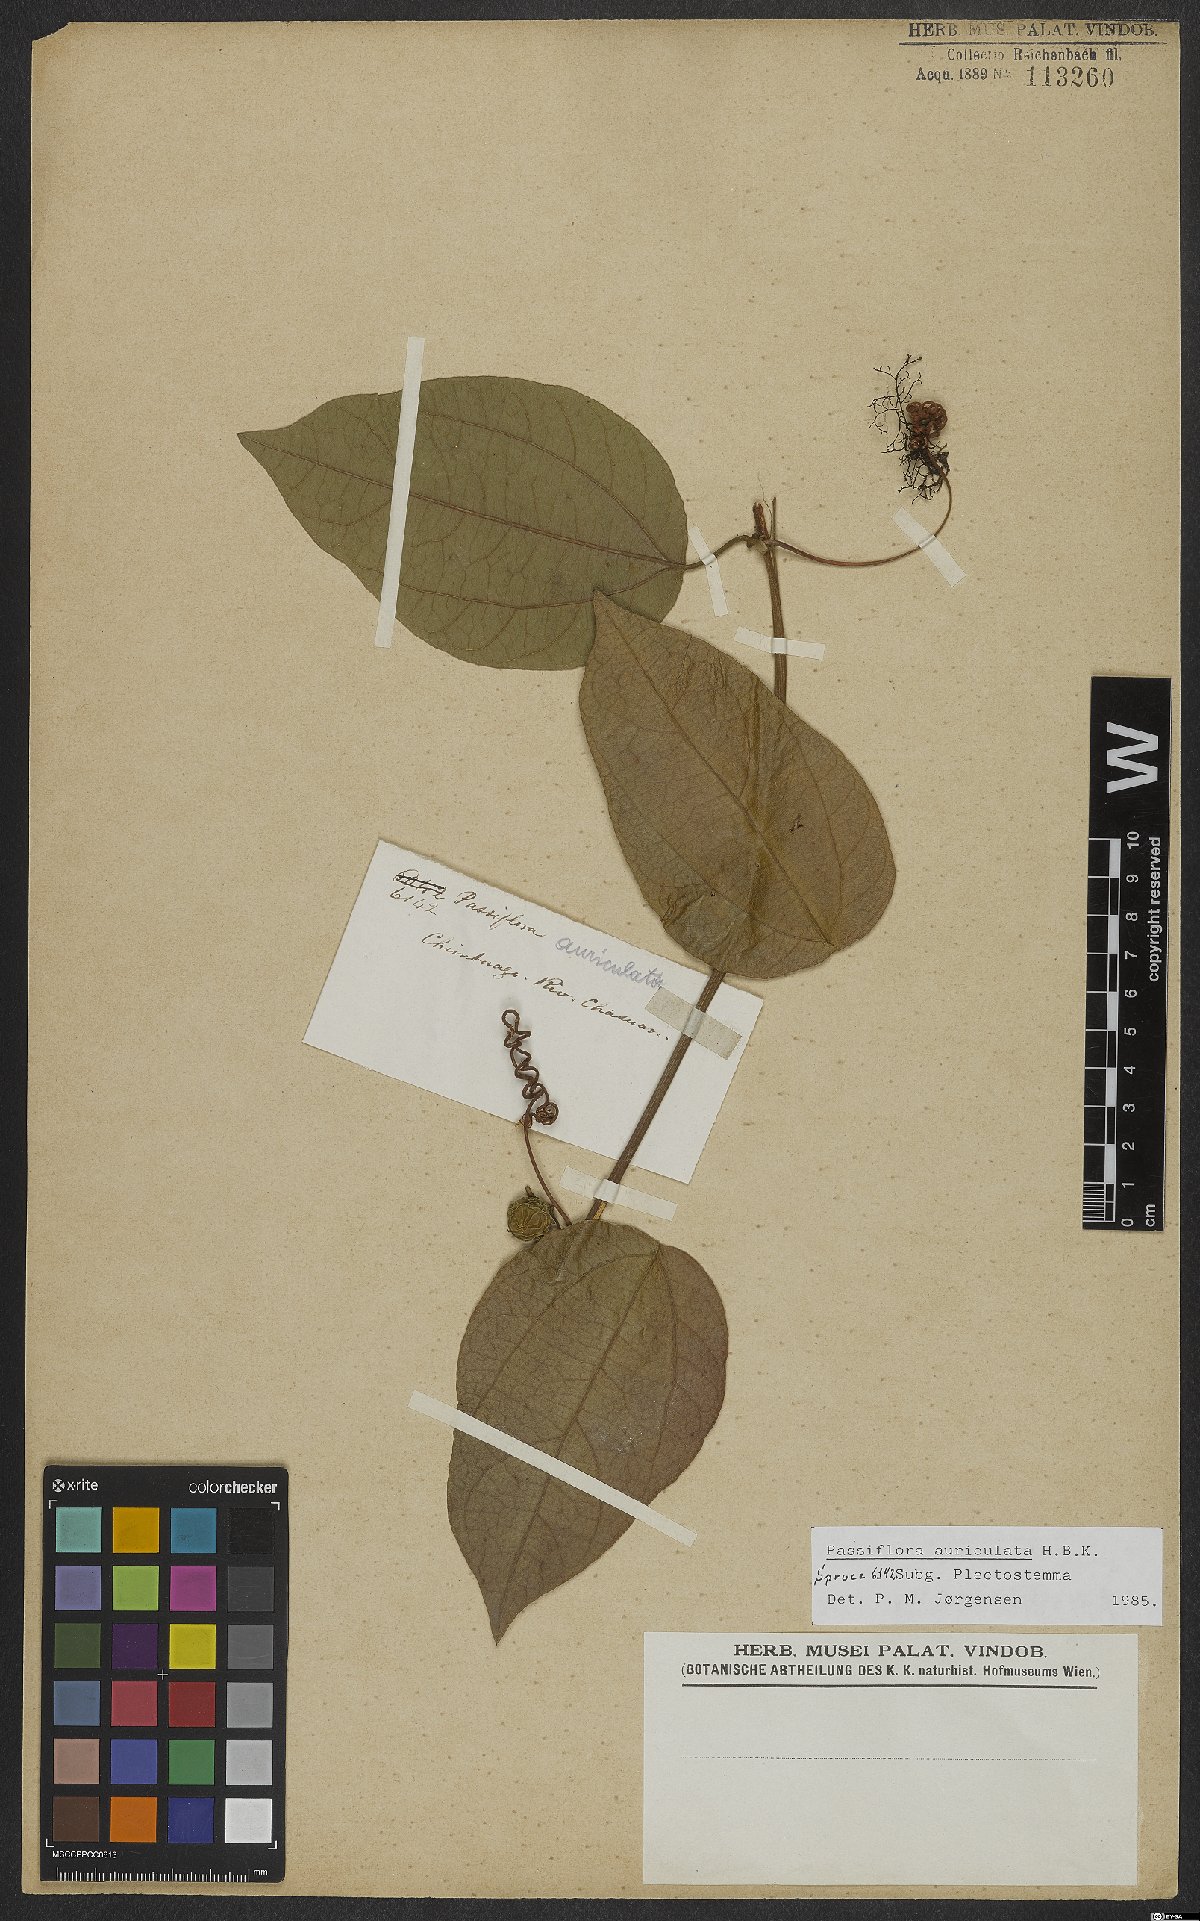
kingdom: Plantae
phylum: Tracheophyta
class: Magnoliopsida
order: Malpighiales
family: Passifloraceae
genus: Passiflora
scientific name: Passiflora auriculata
